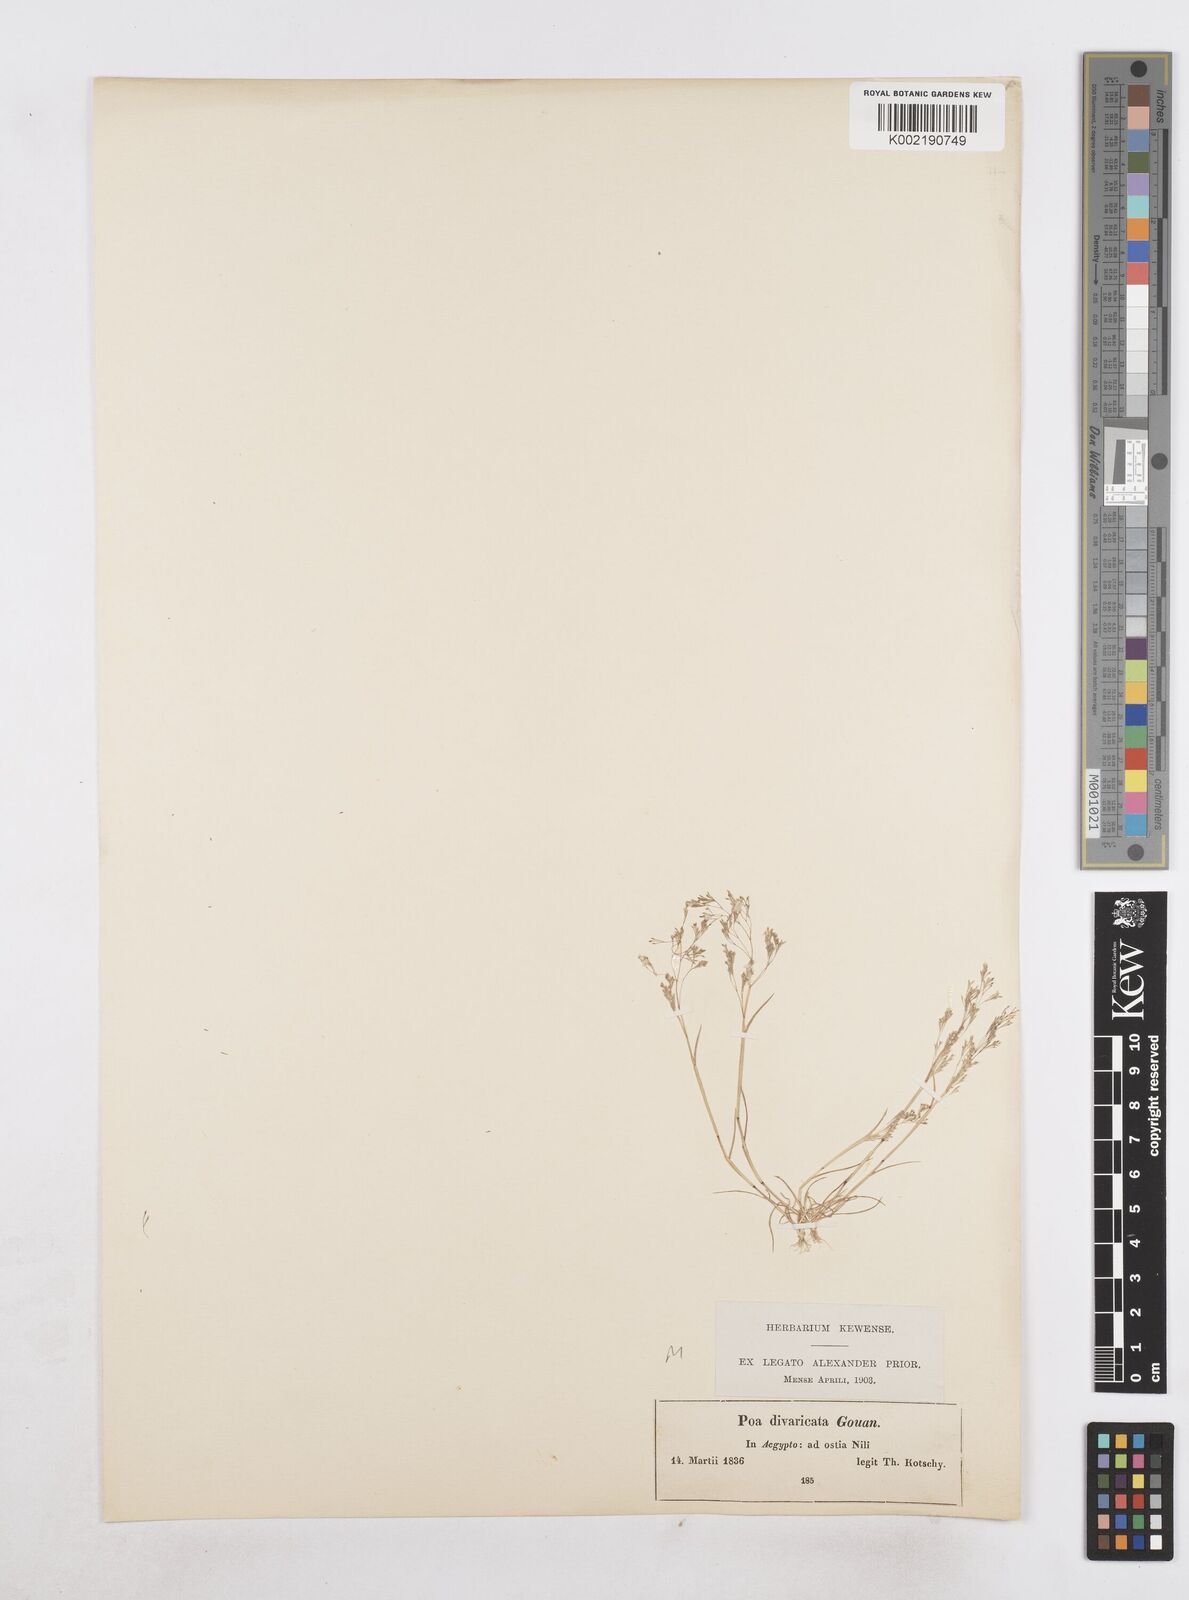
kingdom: Plantae
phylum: Tracheophyta
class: Liliopsida
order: Poales
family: Poaceae
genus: Sphenopus
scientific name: Sphenopus divaricatus
